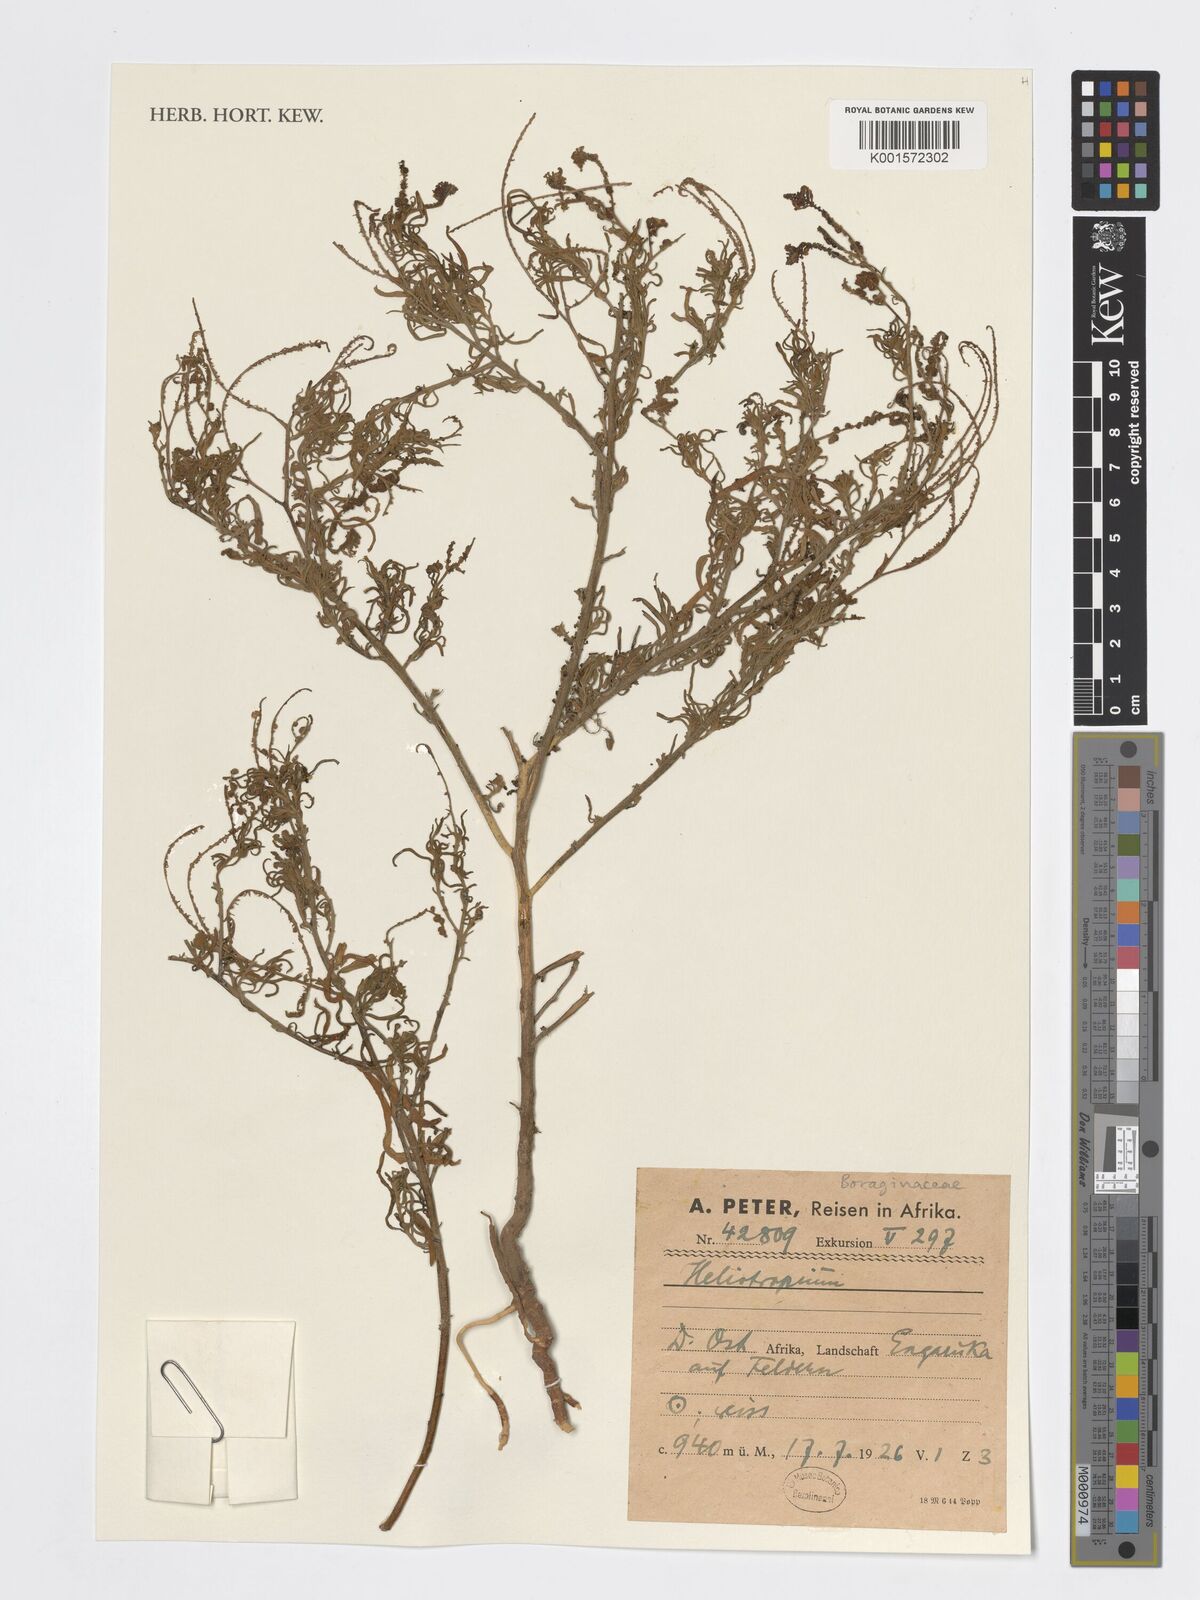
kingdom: Plantae
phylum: Tracheophyta
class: Magnoliopsida
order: Boraginales
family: Heliotropiaceae
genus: Heliotropium
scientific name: Heliotropium
